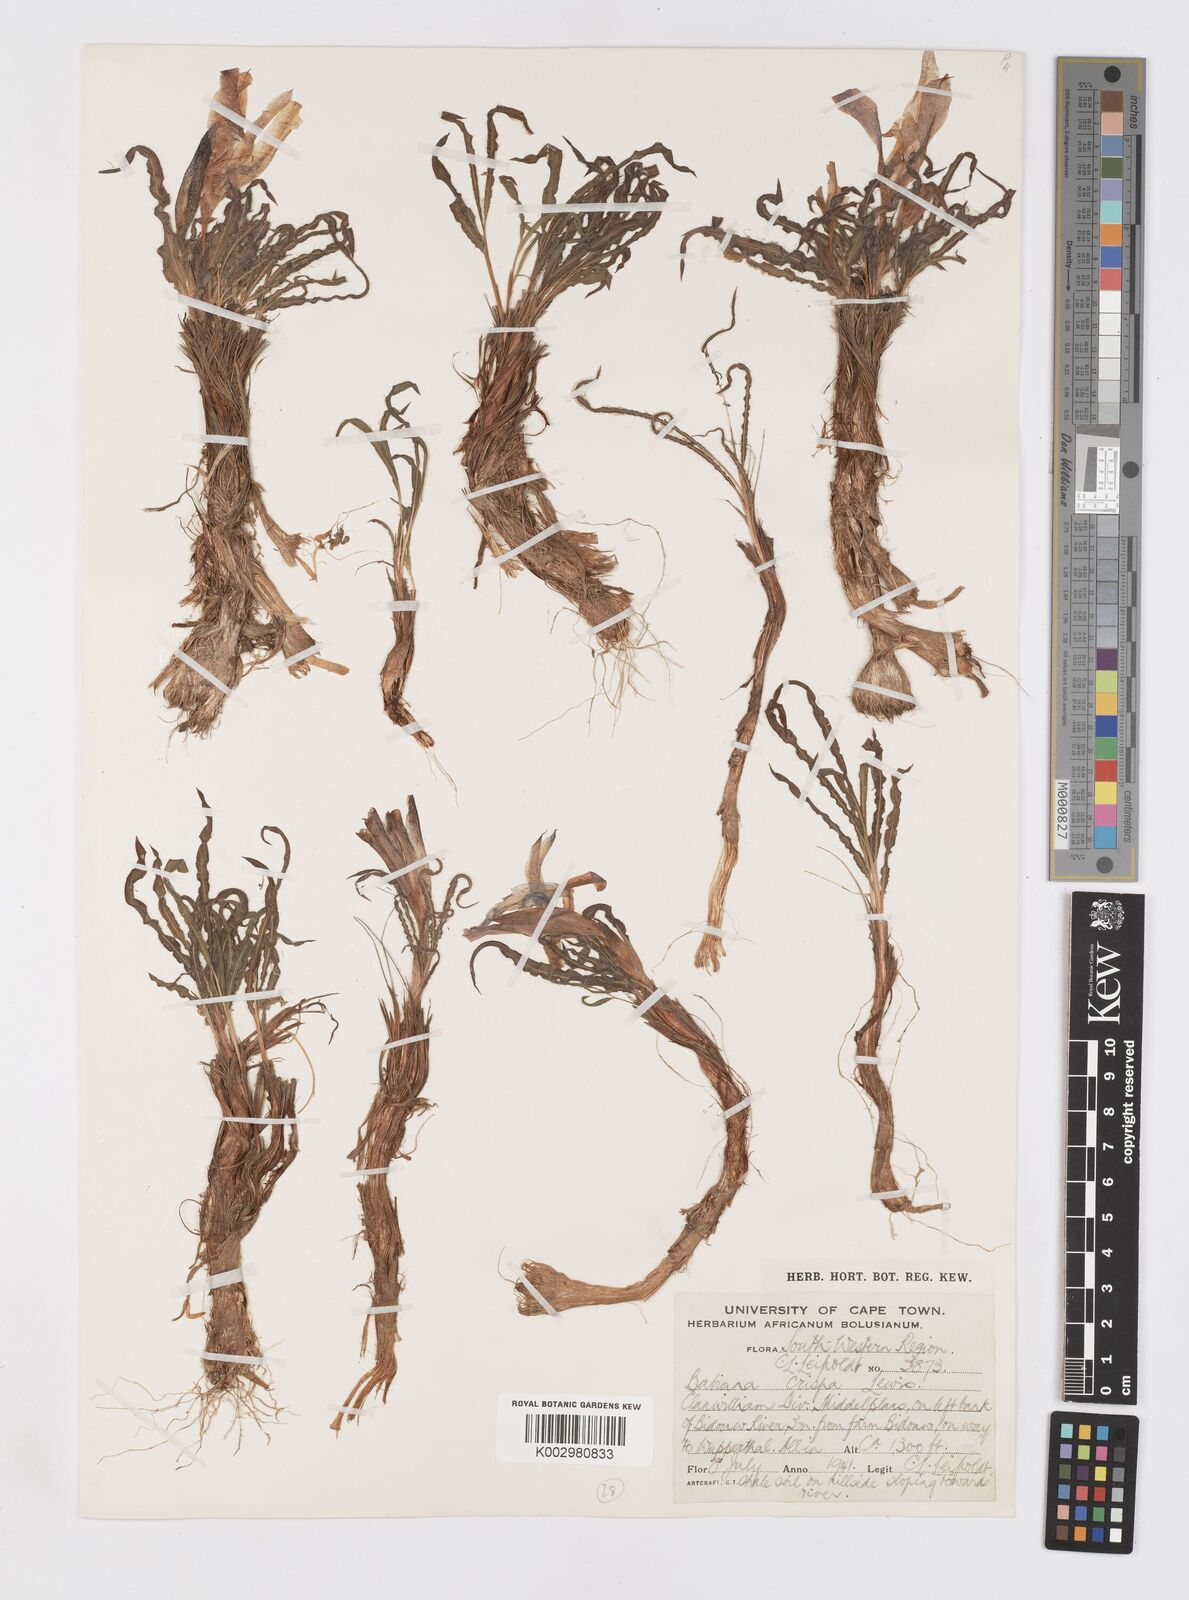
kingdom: Plantae
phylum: Tracheophyta
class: Liliopsida
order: Asparagales
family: Iridaceae
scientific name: Iridaceae
